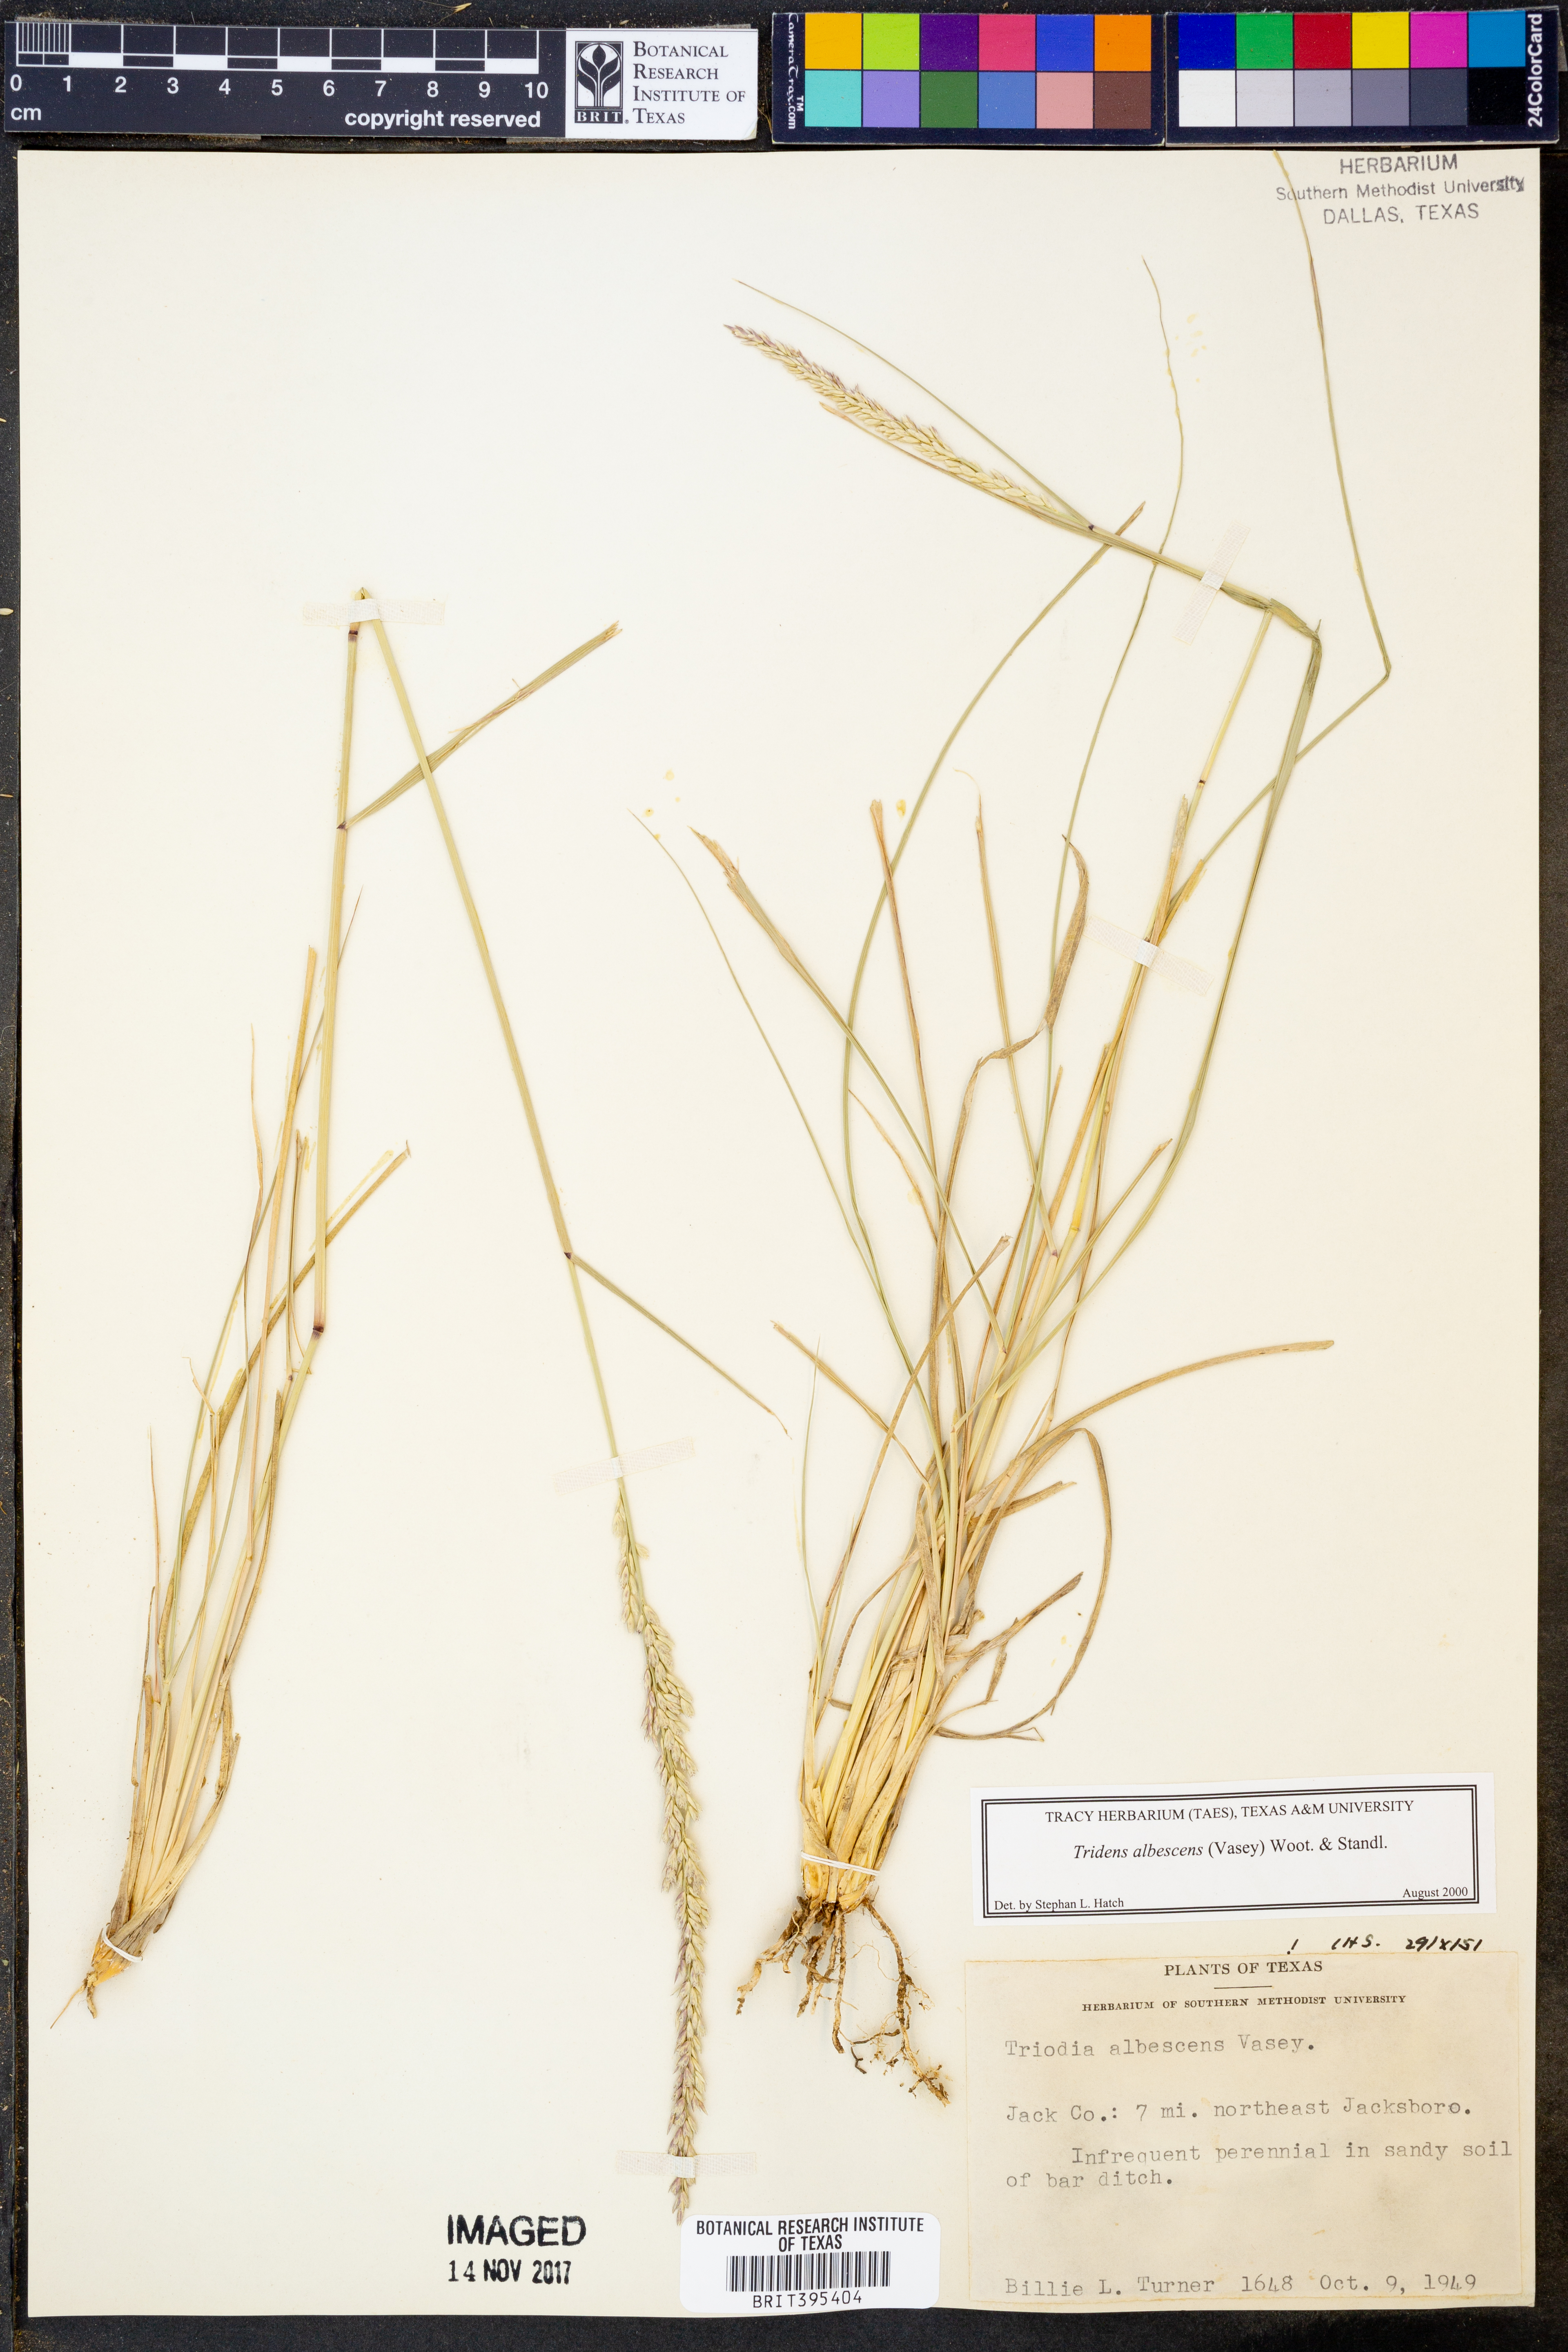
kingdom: Plantae
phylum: Tracheophyta
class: Liliopsida
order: Poales
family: Poaceae
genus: Tridens
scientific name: Tridens albescens
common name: White tridens
